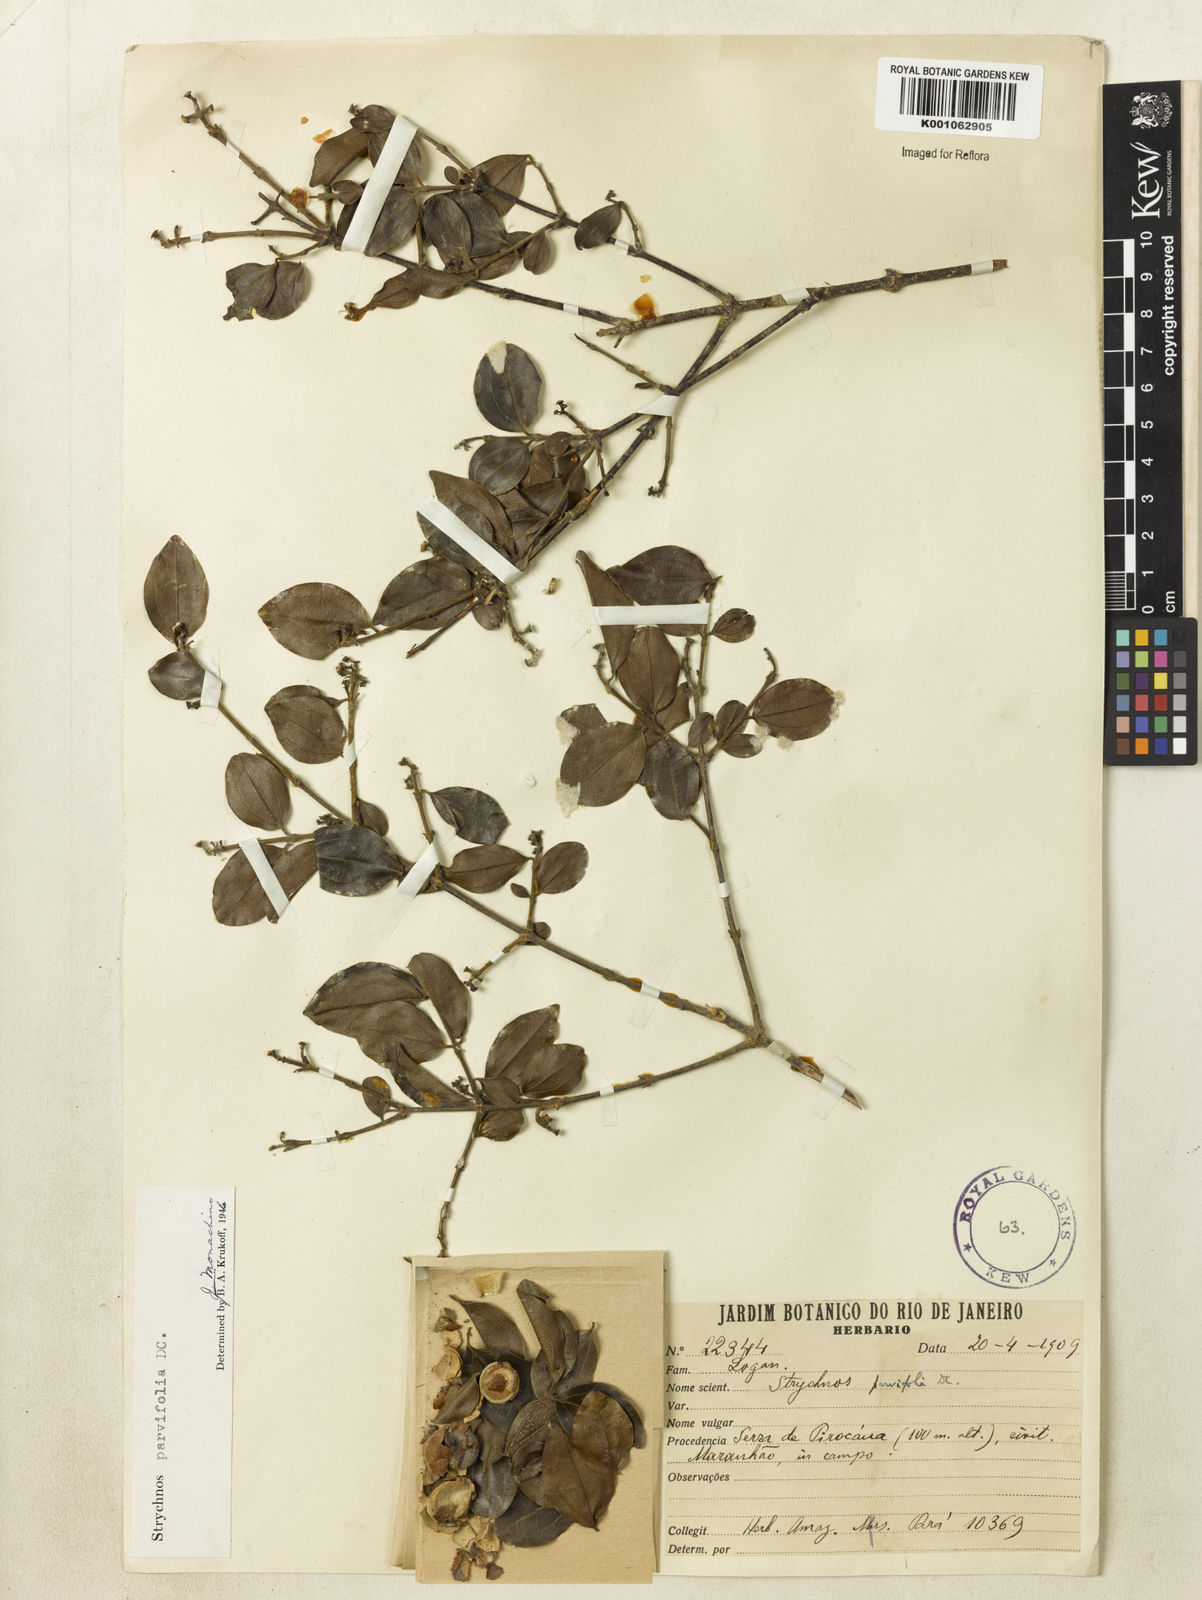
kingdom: Plantae
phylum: Tracheophyta
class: Magnoliopsida
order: Gentianales
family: Loganiaceae
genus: Strychnos
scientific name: Strychnos parvifolia
